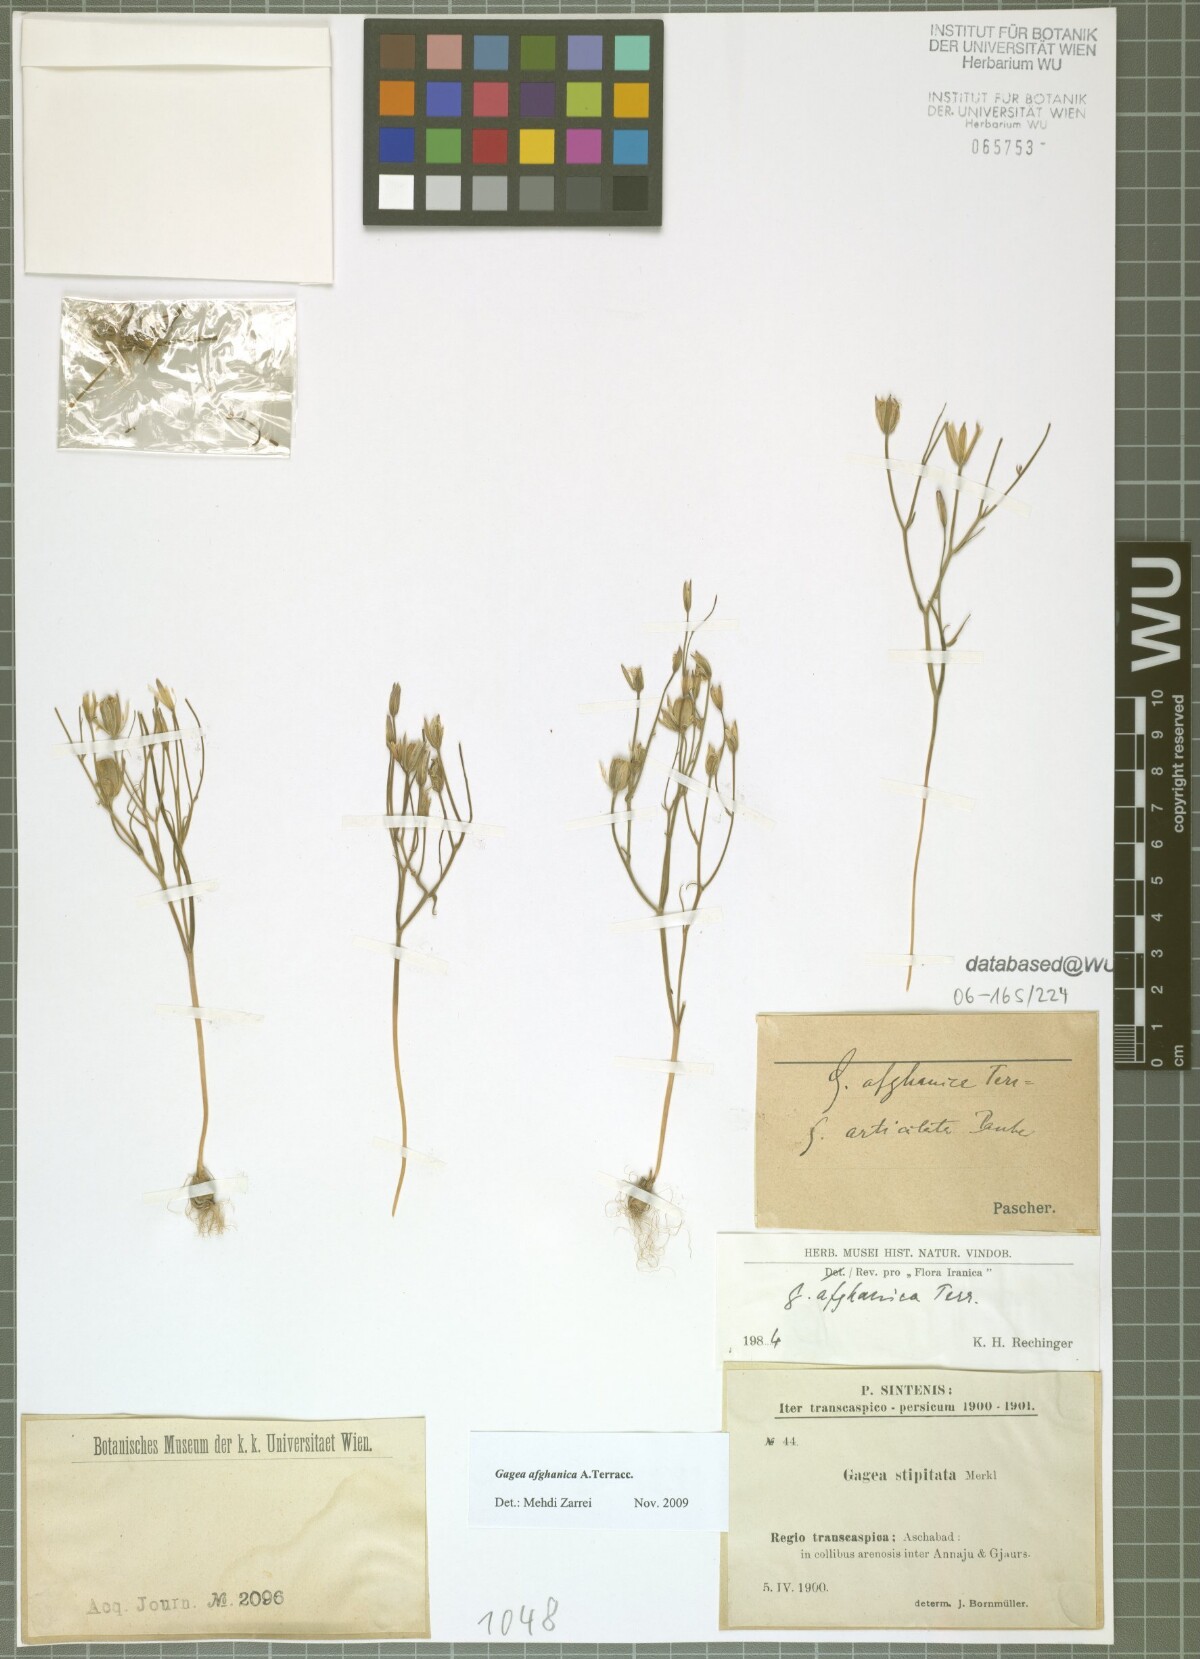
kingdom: Plantae
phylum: Tracheophyta
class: Liliopsida
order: Liliales
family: Liliaceae
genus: Gagea
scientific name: Gagea afghanica
